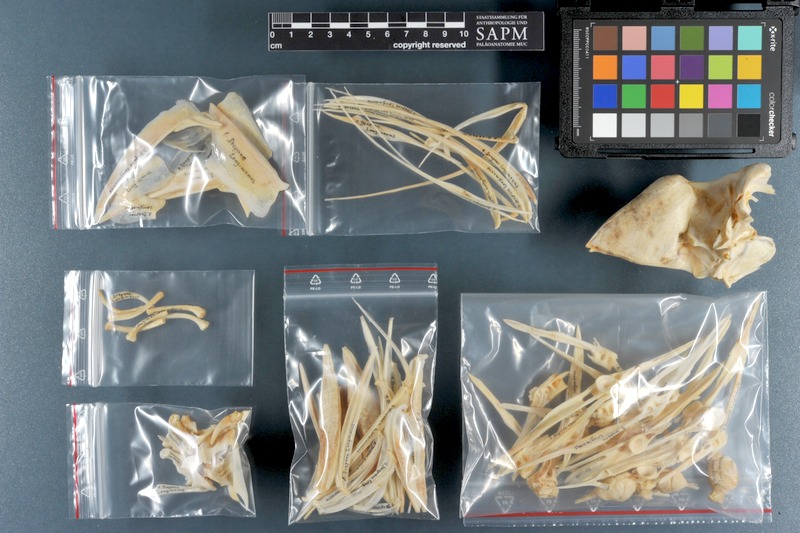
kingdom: Animalia
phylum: Chordata
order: Perciformes
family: Drepaneidae
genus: Drepane
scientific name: Drepane longimana
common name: Concertina fish
